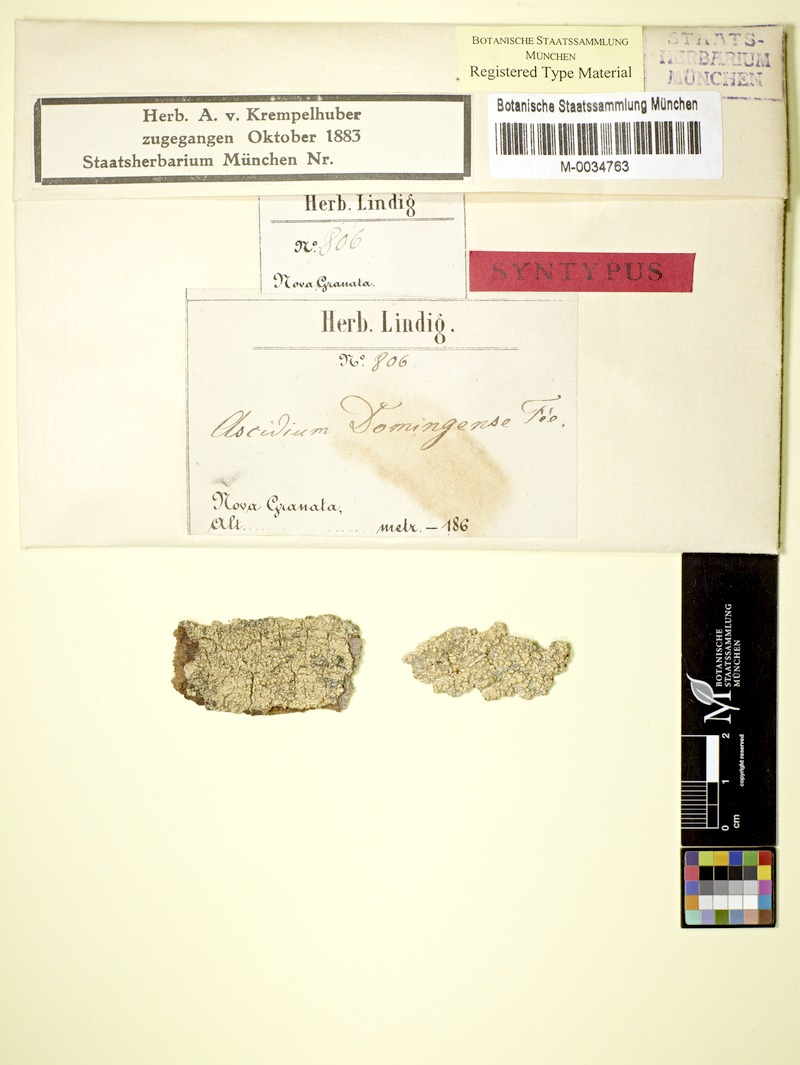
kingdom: Fungi
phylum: Ascomycota
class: Lecanoromycetes
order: Ostropales
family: Graphidaceae
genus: Ocellularia
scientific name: Ocellularia domingensis
